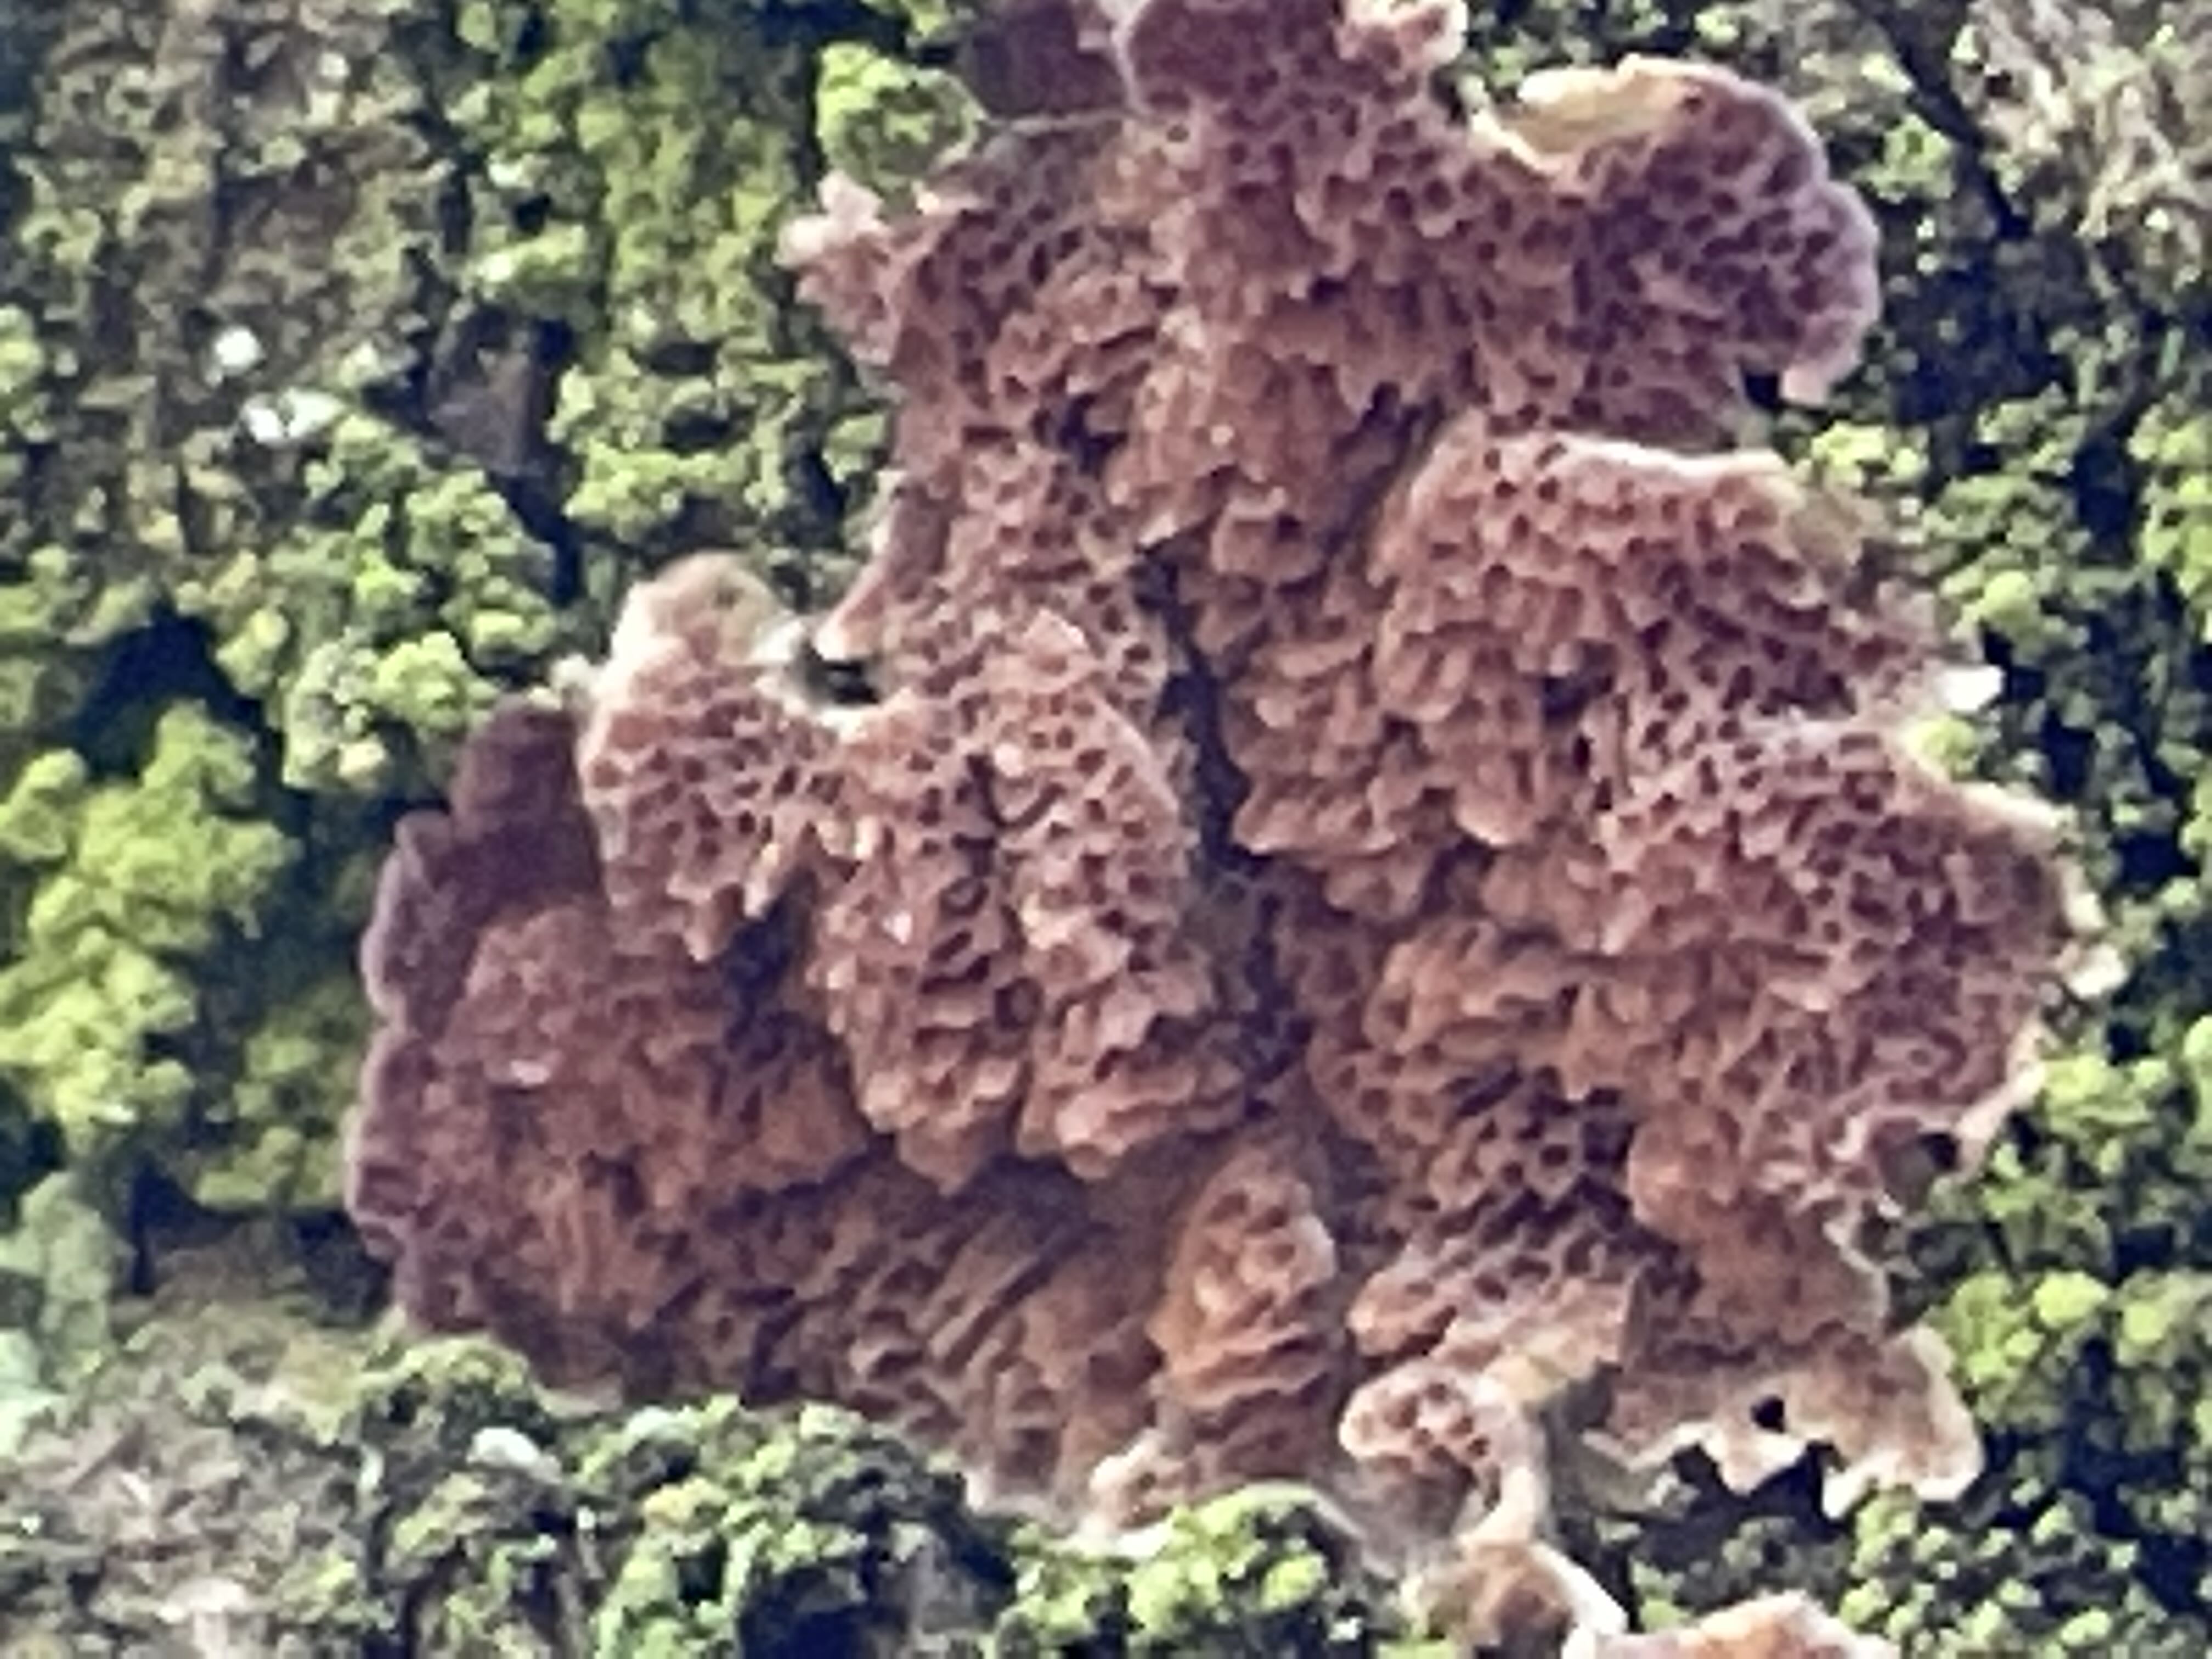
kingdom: Fungi
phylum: Basidiomycota
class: Agaricomycetes
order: Hymenochaetales
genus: Trichaptum
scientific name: Trichaptum abietinum
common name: almindelig violporesvamp
